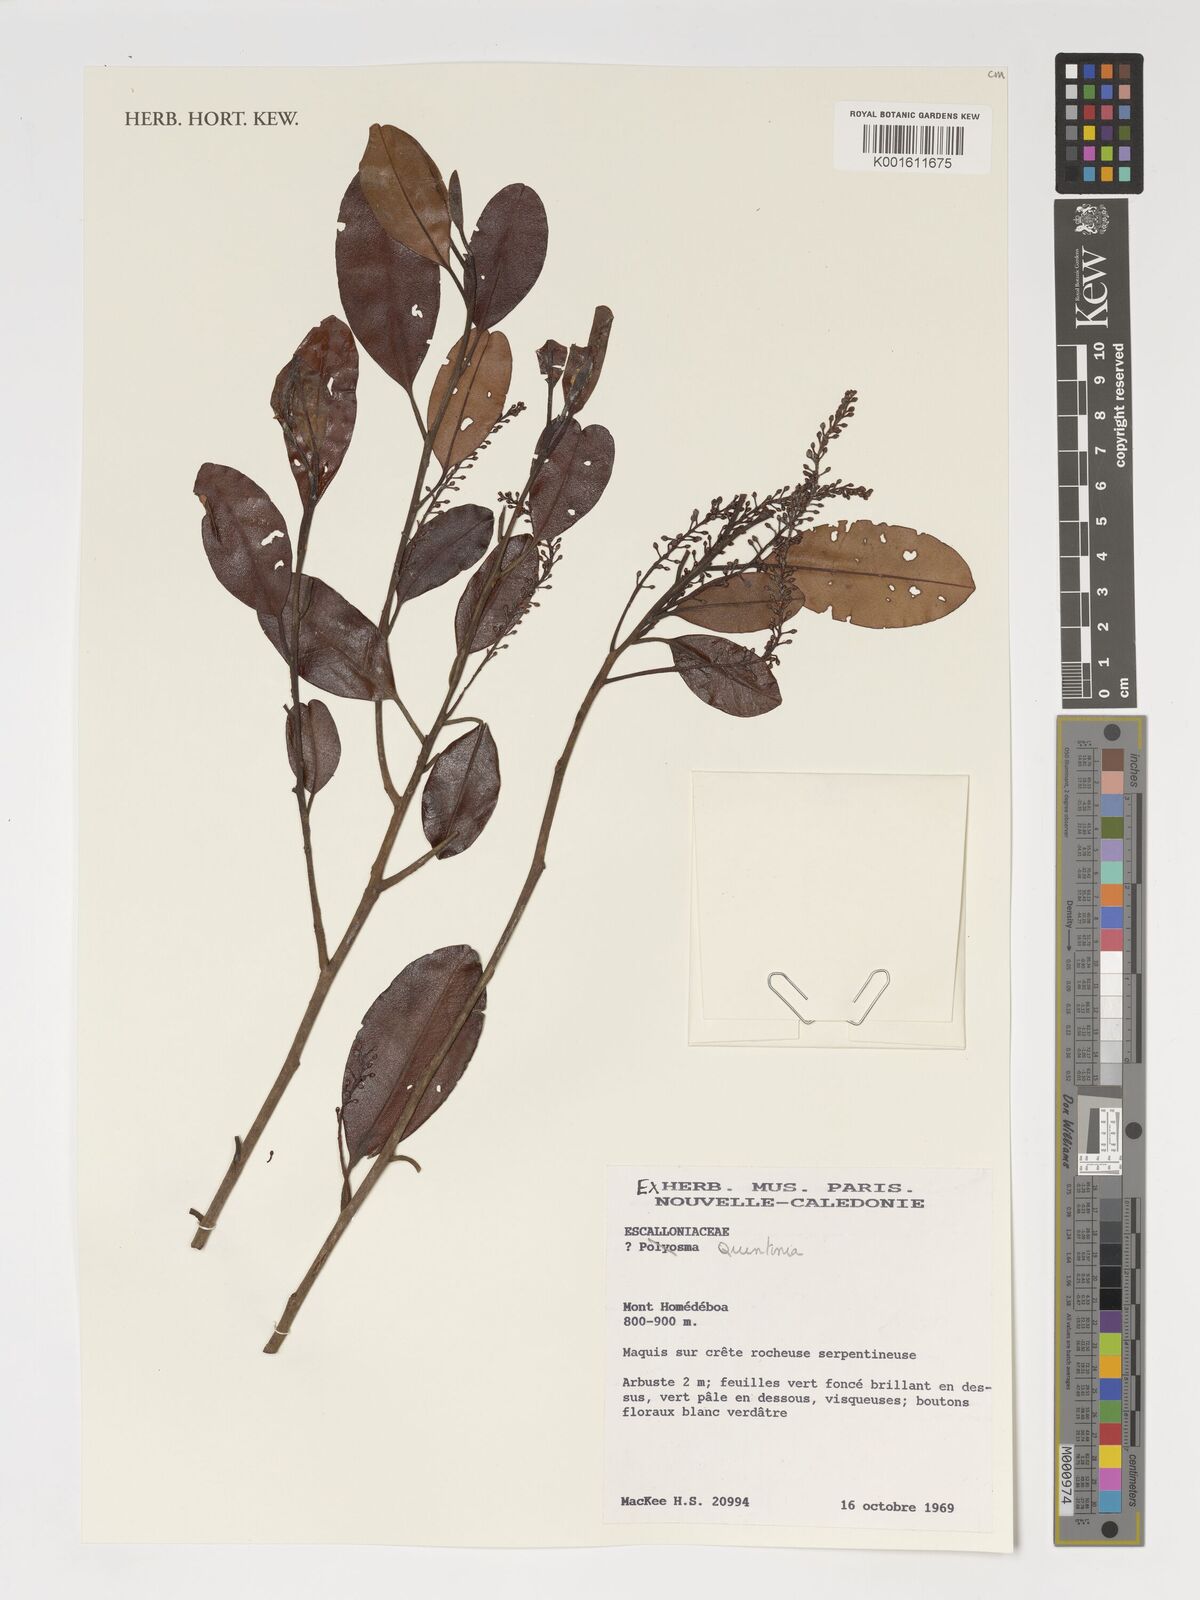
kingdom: Plantae
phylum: Tracheophyta
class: Magnoliopsida
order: Paracryphiales
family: Paracryphiaceae
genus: Quintinia
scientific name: Quintinia
